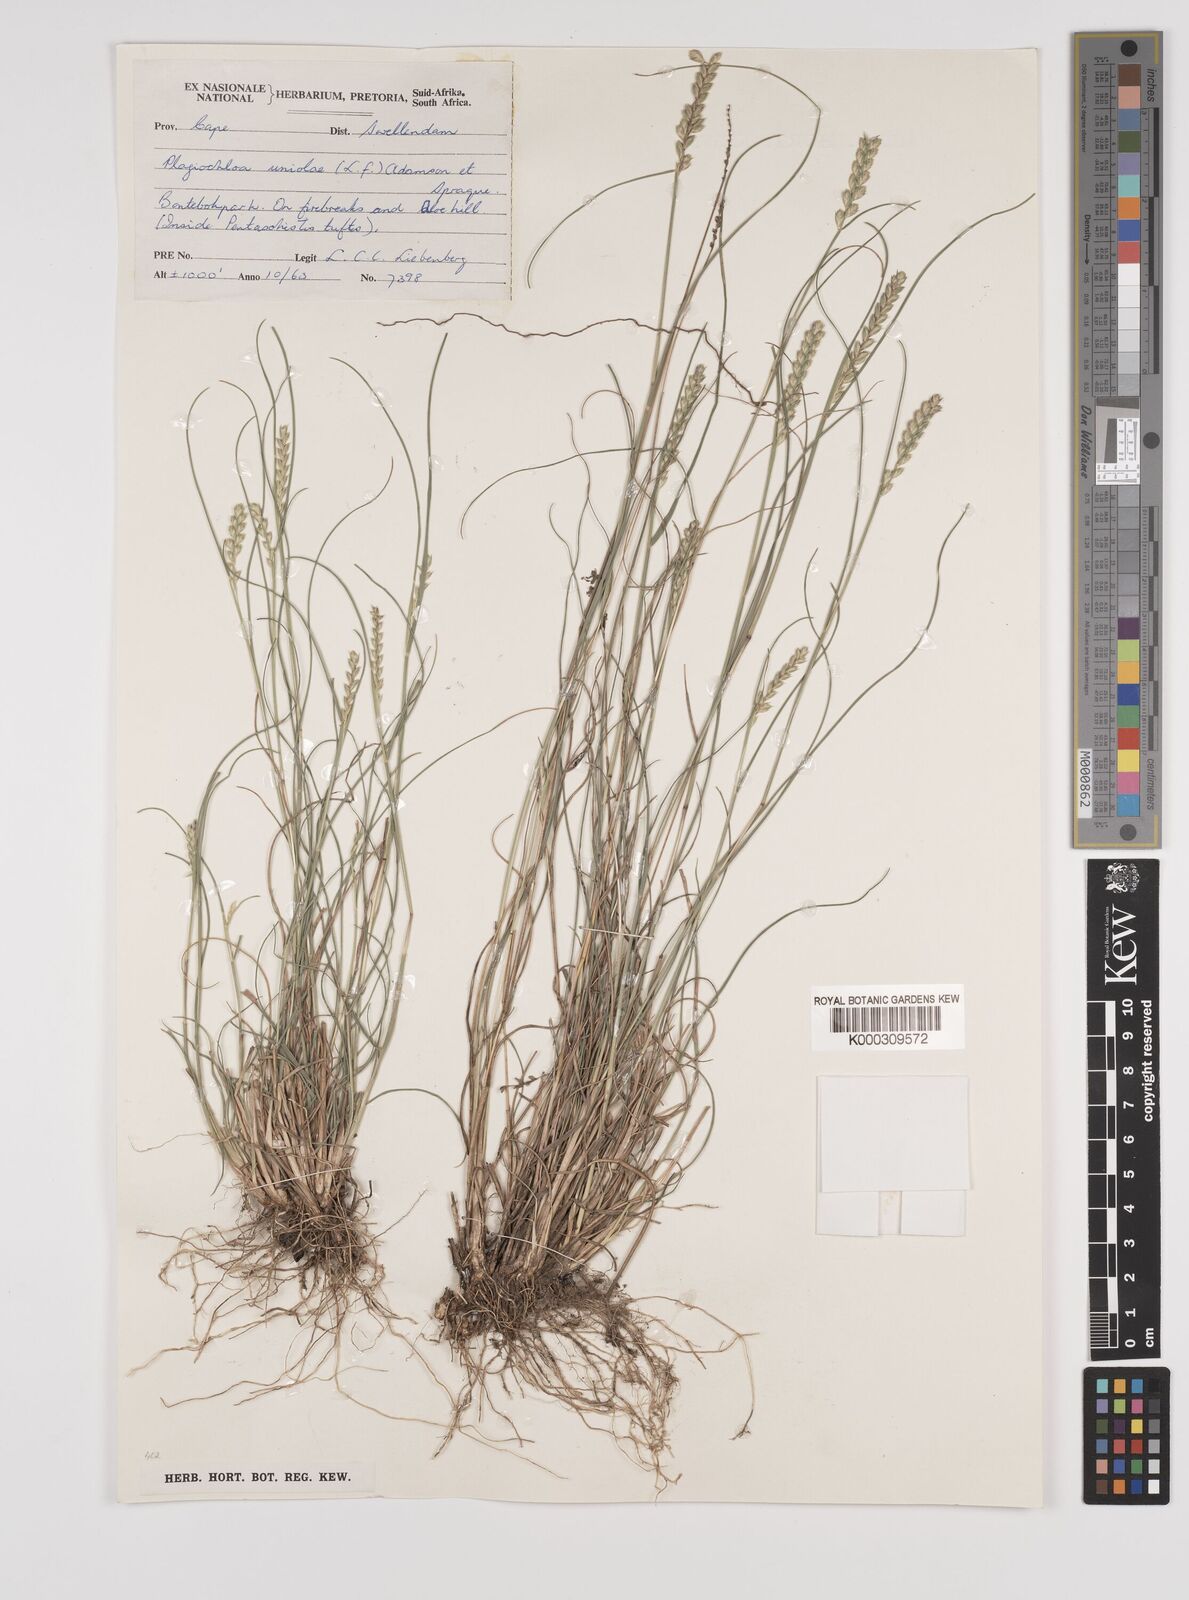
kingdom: Plantae
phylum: Tracheophyta
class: Liliopsida
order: Poales
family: Poaceae
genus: Tribolium
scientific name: Tribolium amplexum
